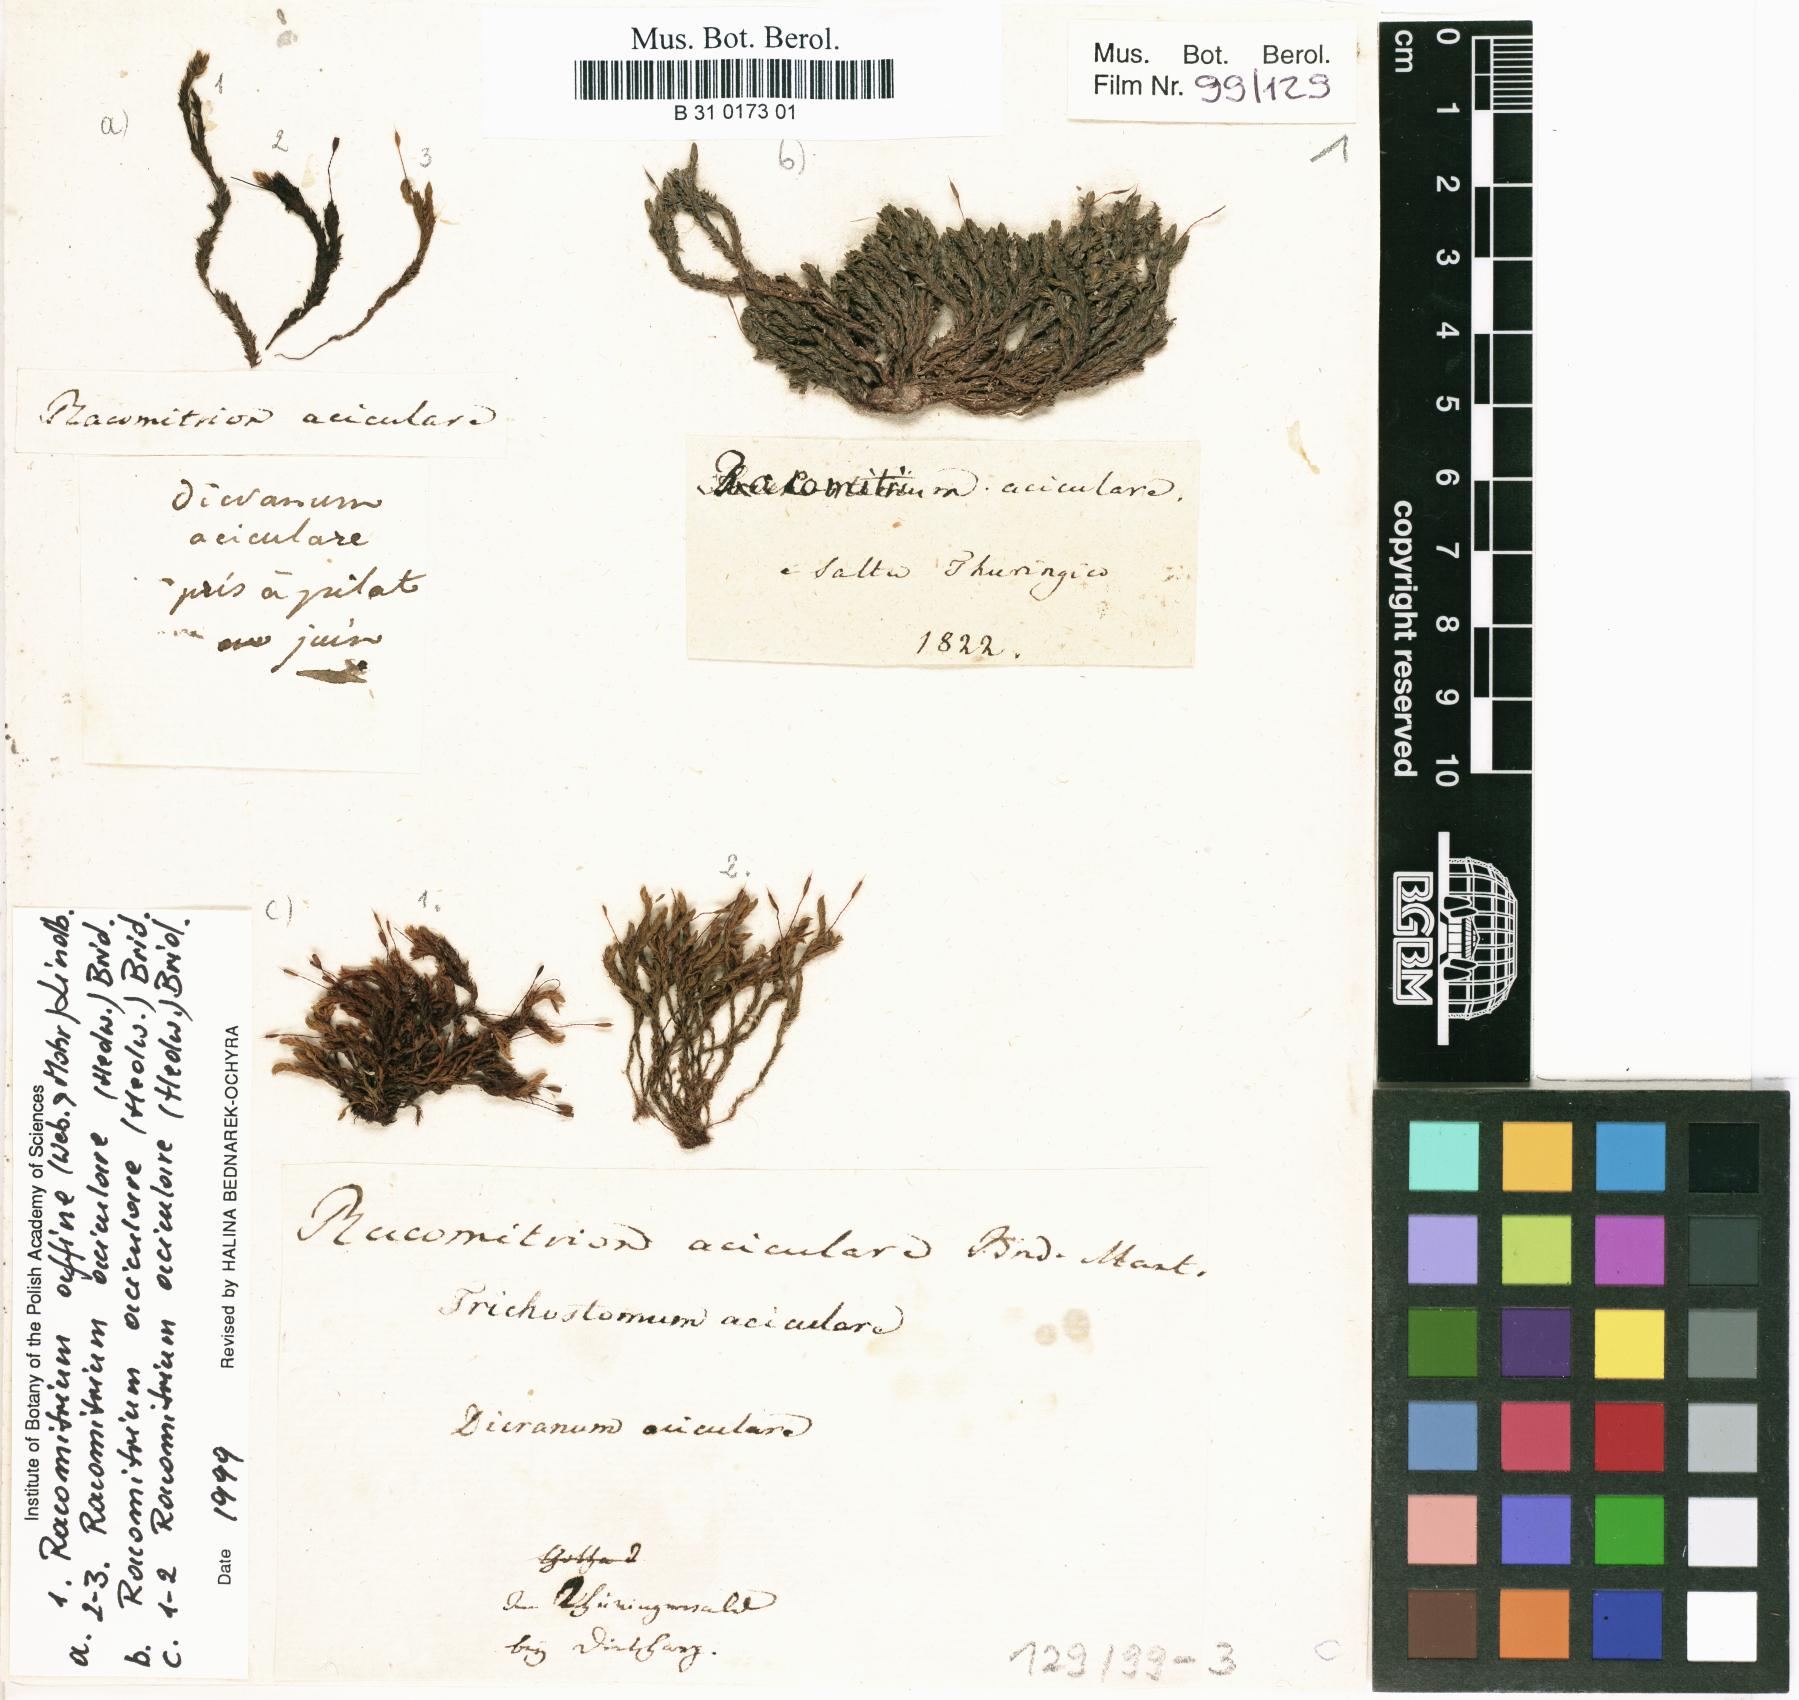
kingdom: Plantae
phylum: Bryophyta
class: Bryopsida
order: Grimmiales
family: Grimmiaceae
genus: Codriophorus
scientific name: Codriophorus acicularis
